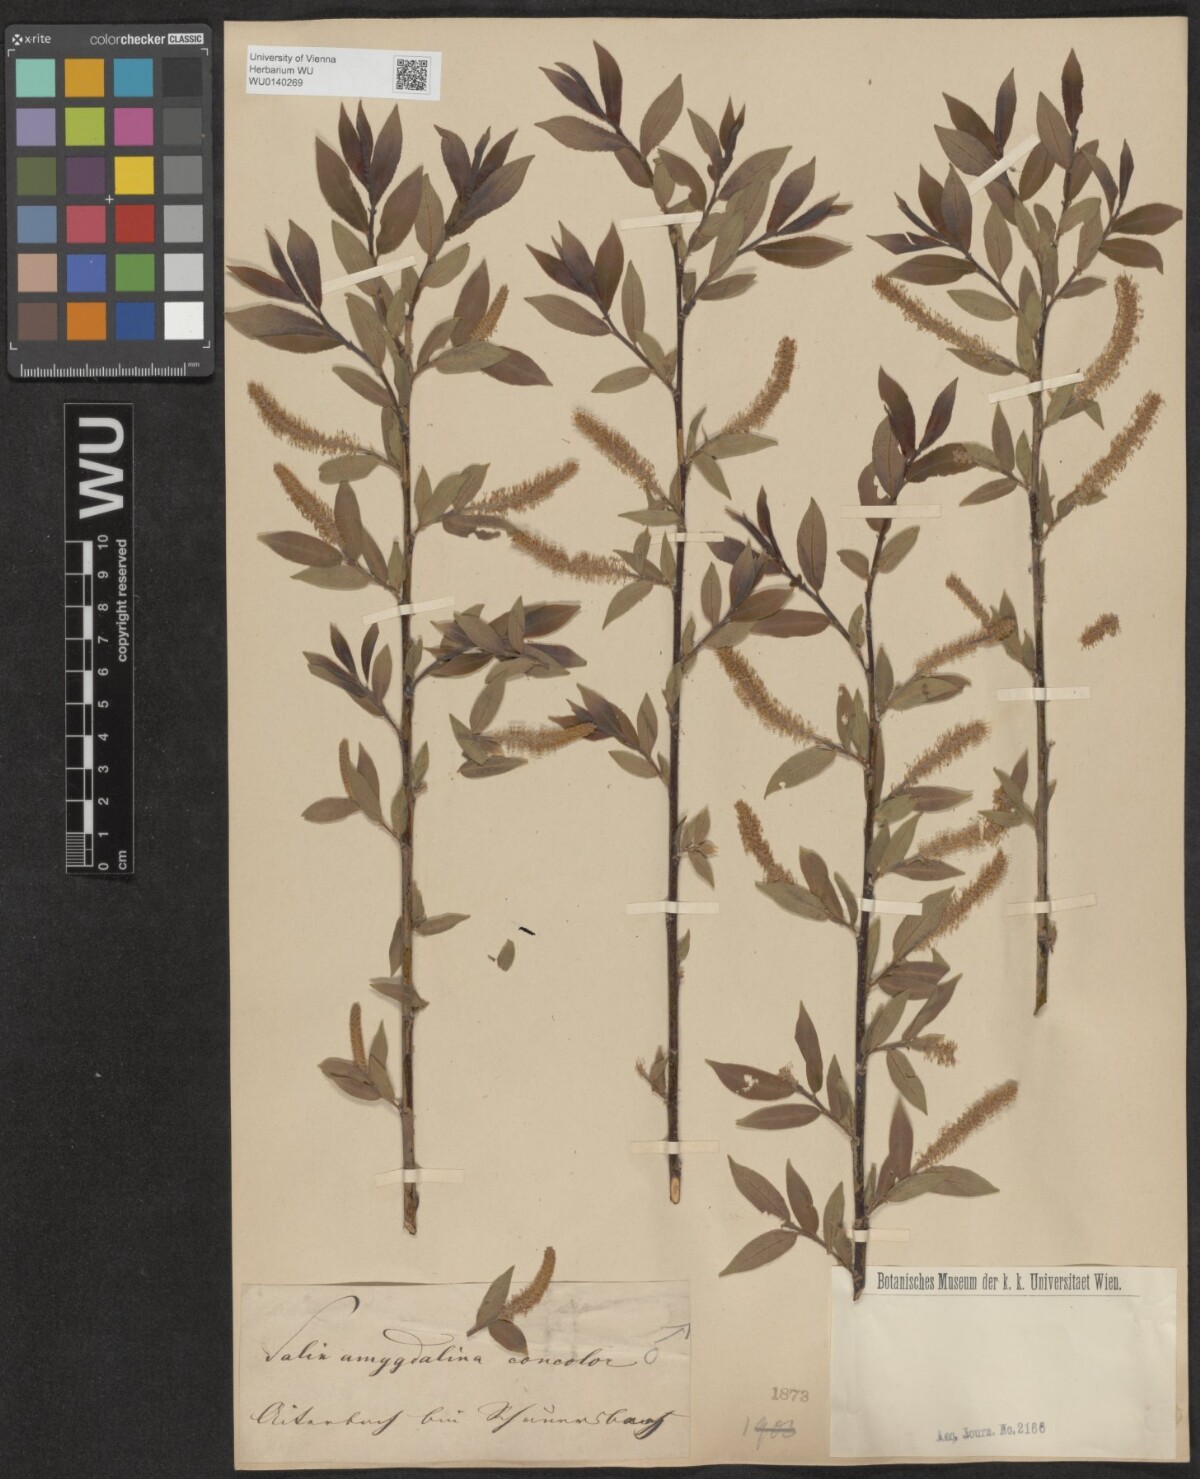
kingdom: Plantae
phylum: Tracheophyta
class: Magnoliopsida
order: Malpighiales
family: Salicaceae
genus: Salix
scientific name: Salix triandra
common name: Almond willow
